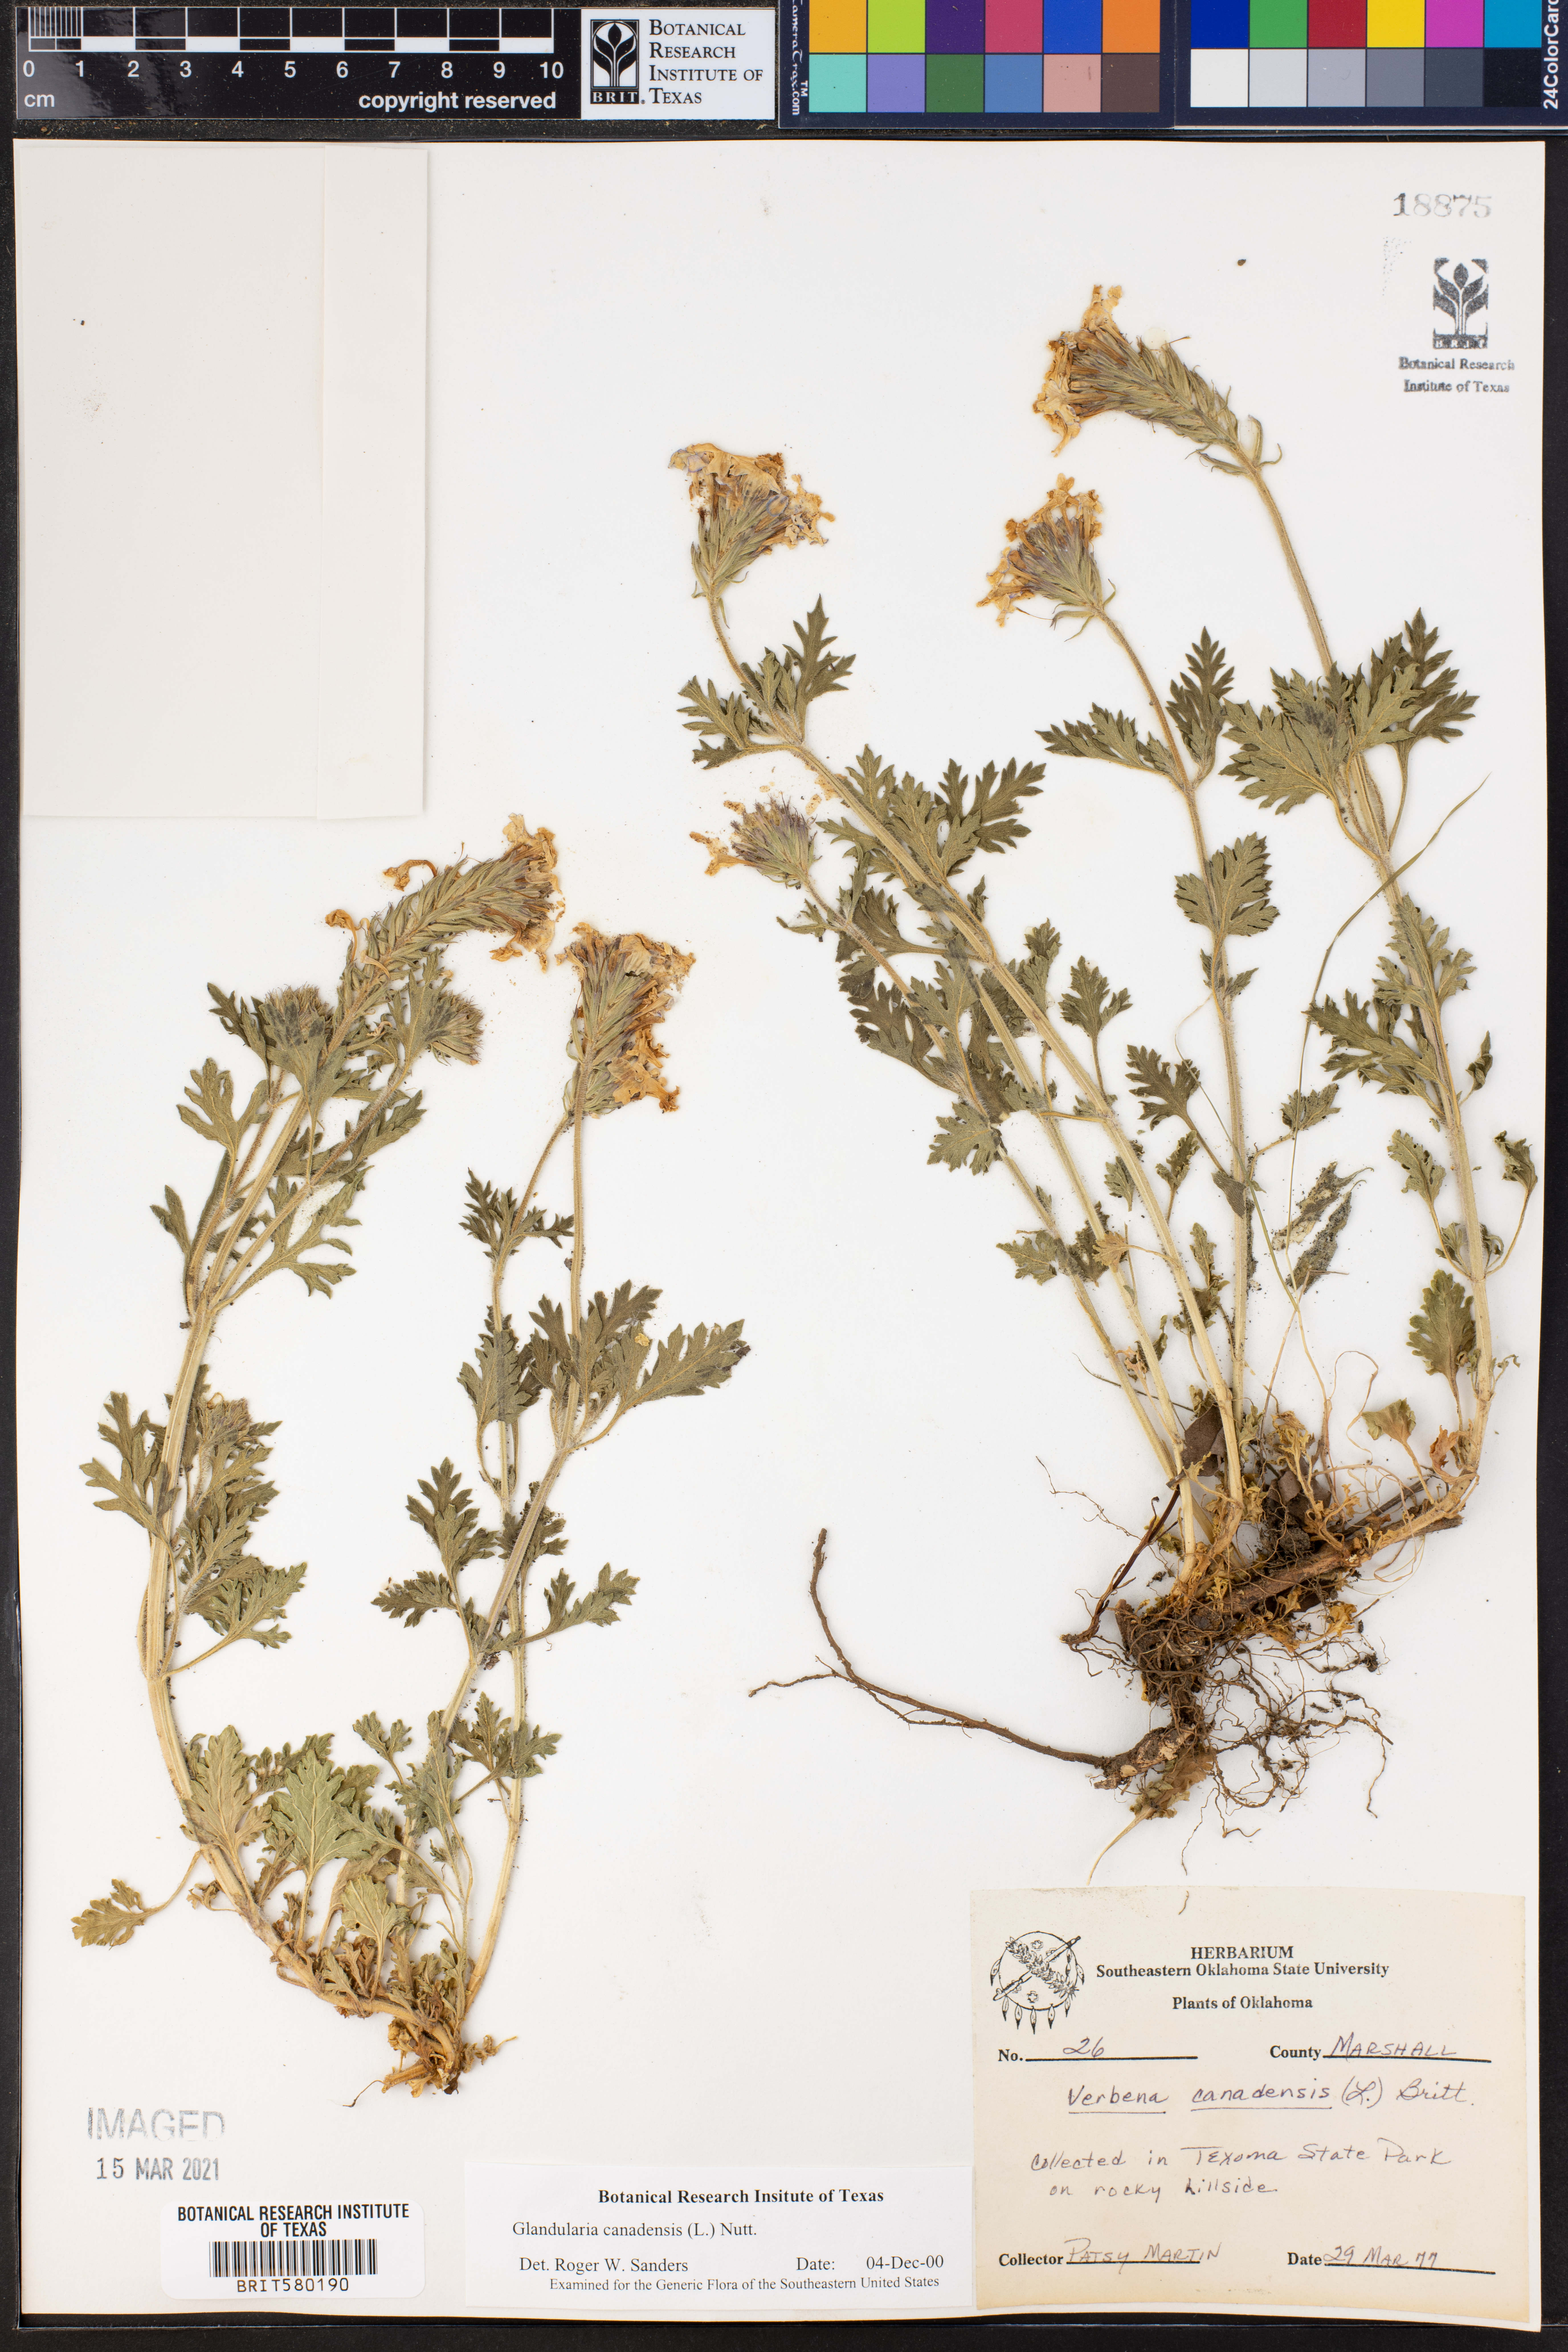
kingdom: Plantae
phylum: Tracheophyta
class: Magnoliopsida
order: Lamiales
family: Verbenaceae
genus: Verbena
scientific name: Verbena canadensis
